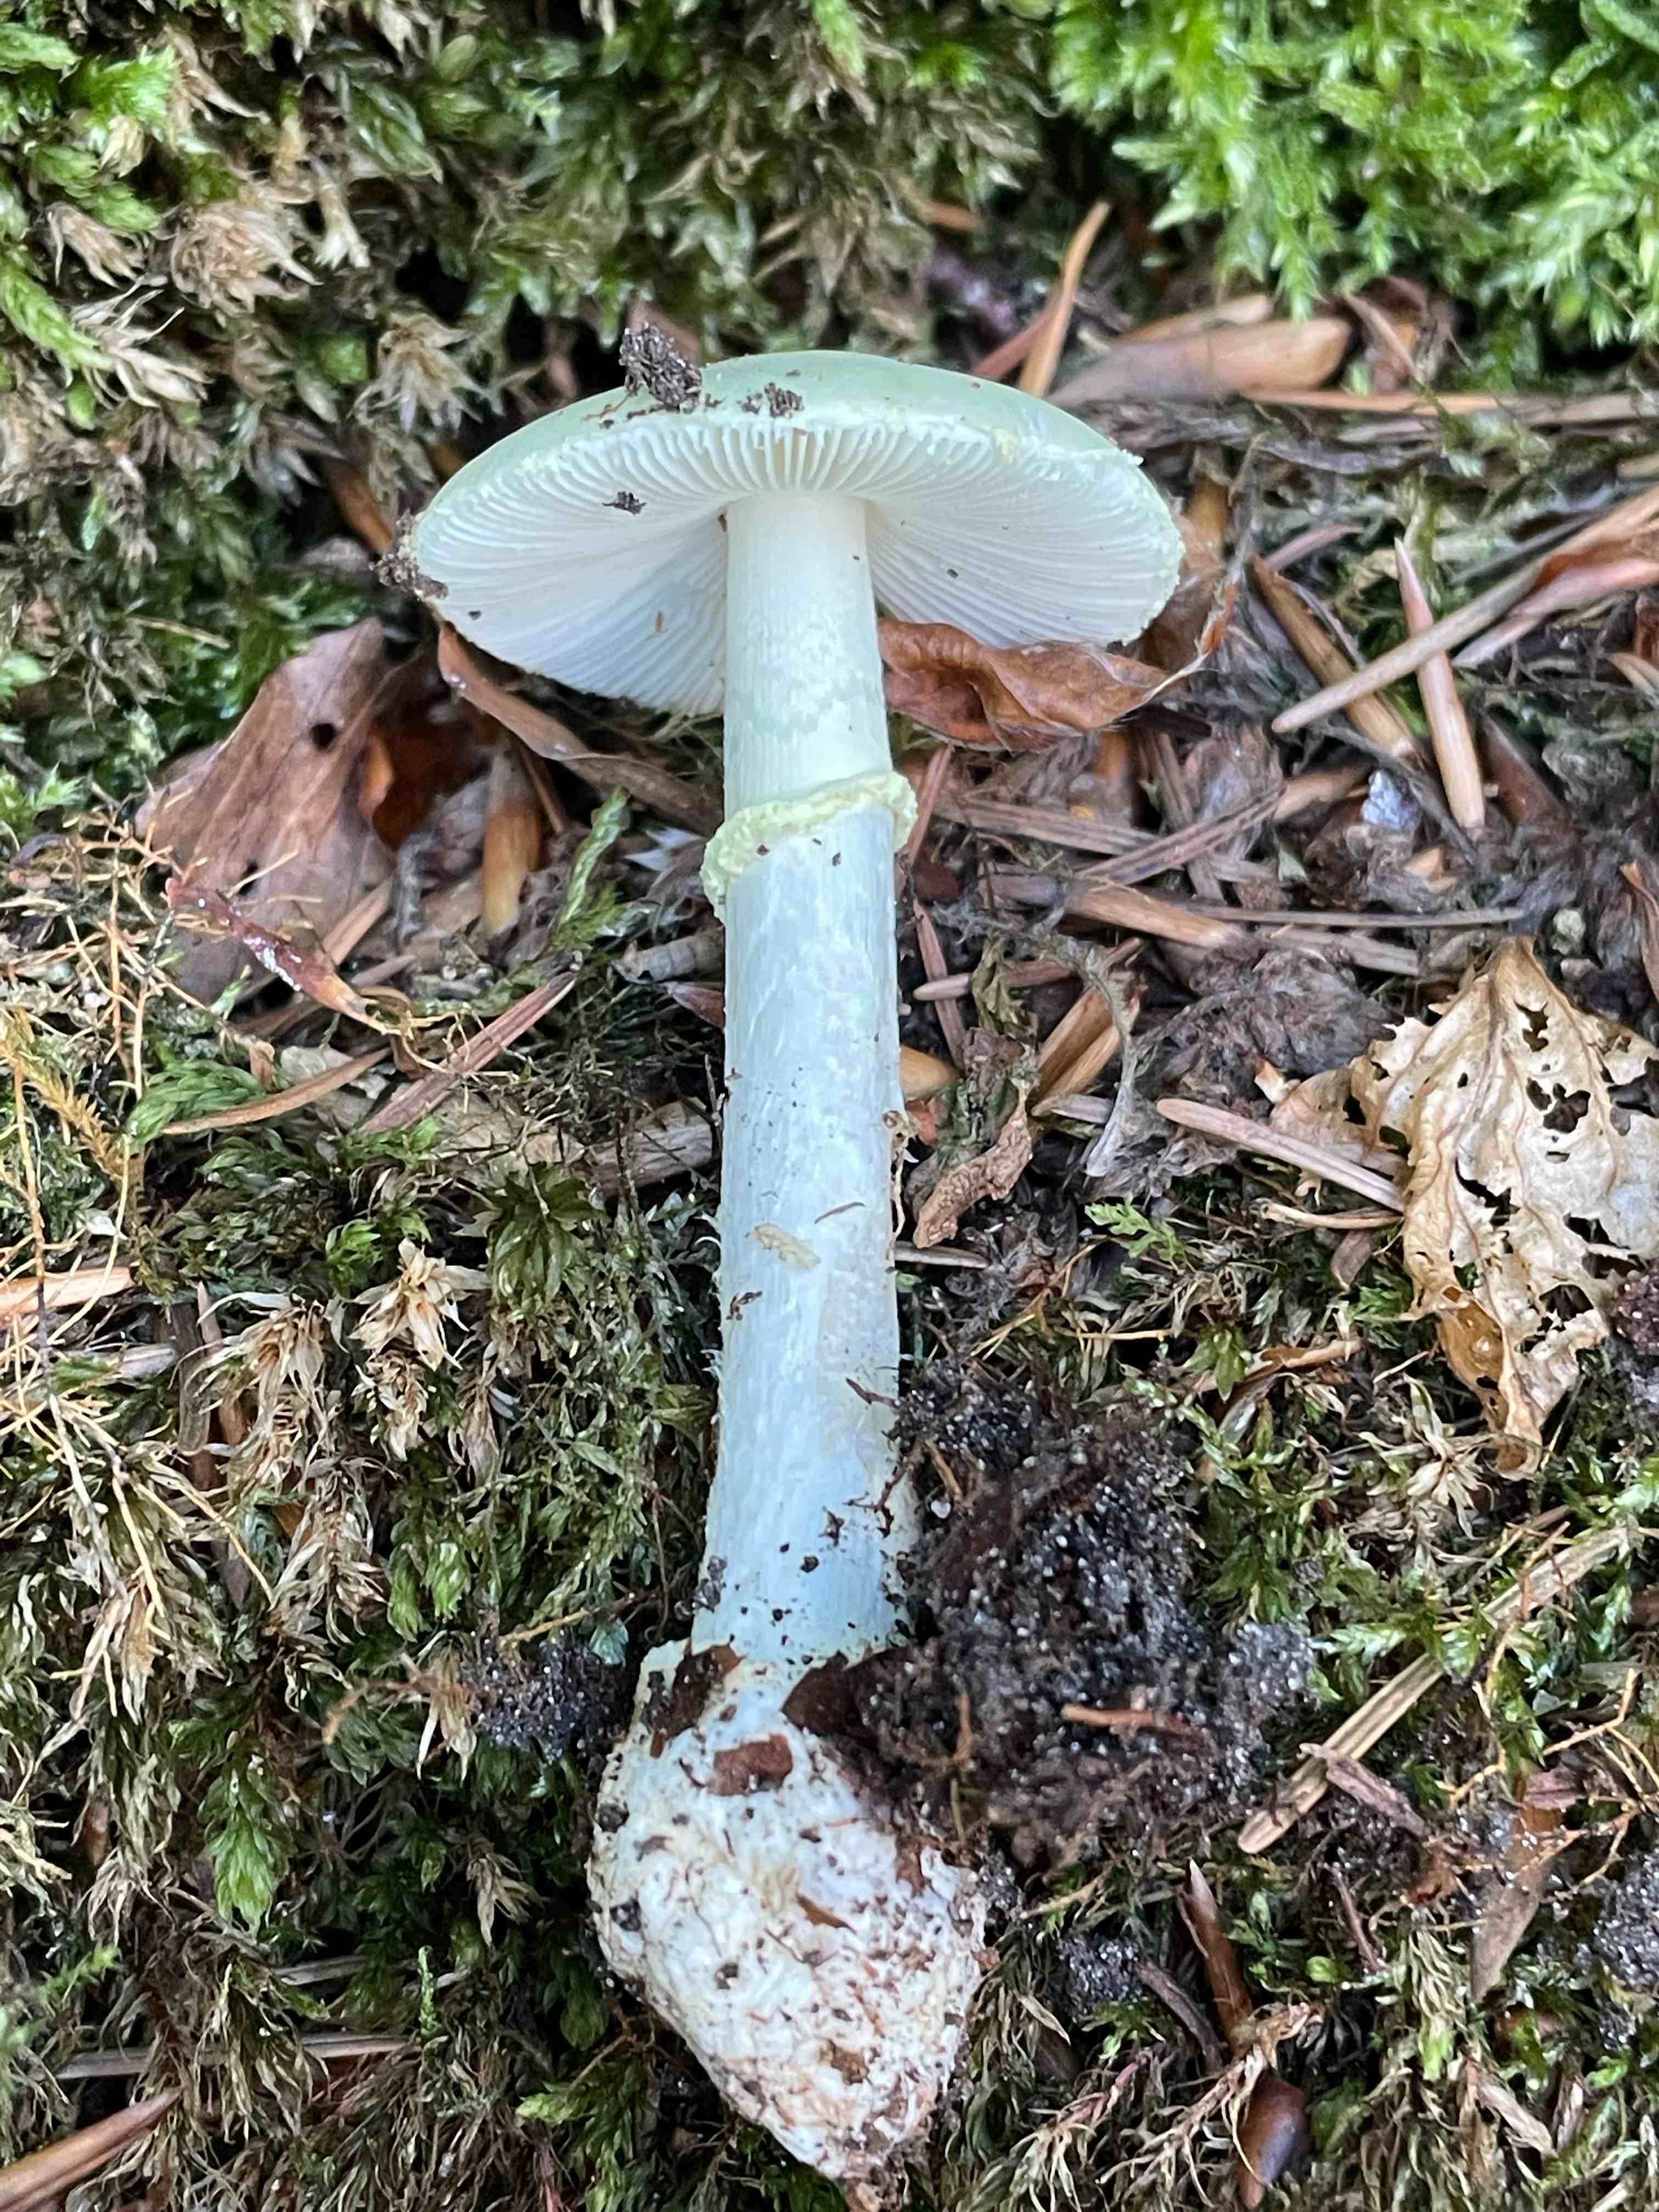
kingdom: Fungi
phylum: Basidiomycota
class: Agaricomycetes
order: Agaricales
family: Amanitaceae
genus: Amanita
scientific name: Amanita citrina
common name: kugleknoldet fluesvamp
